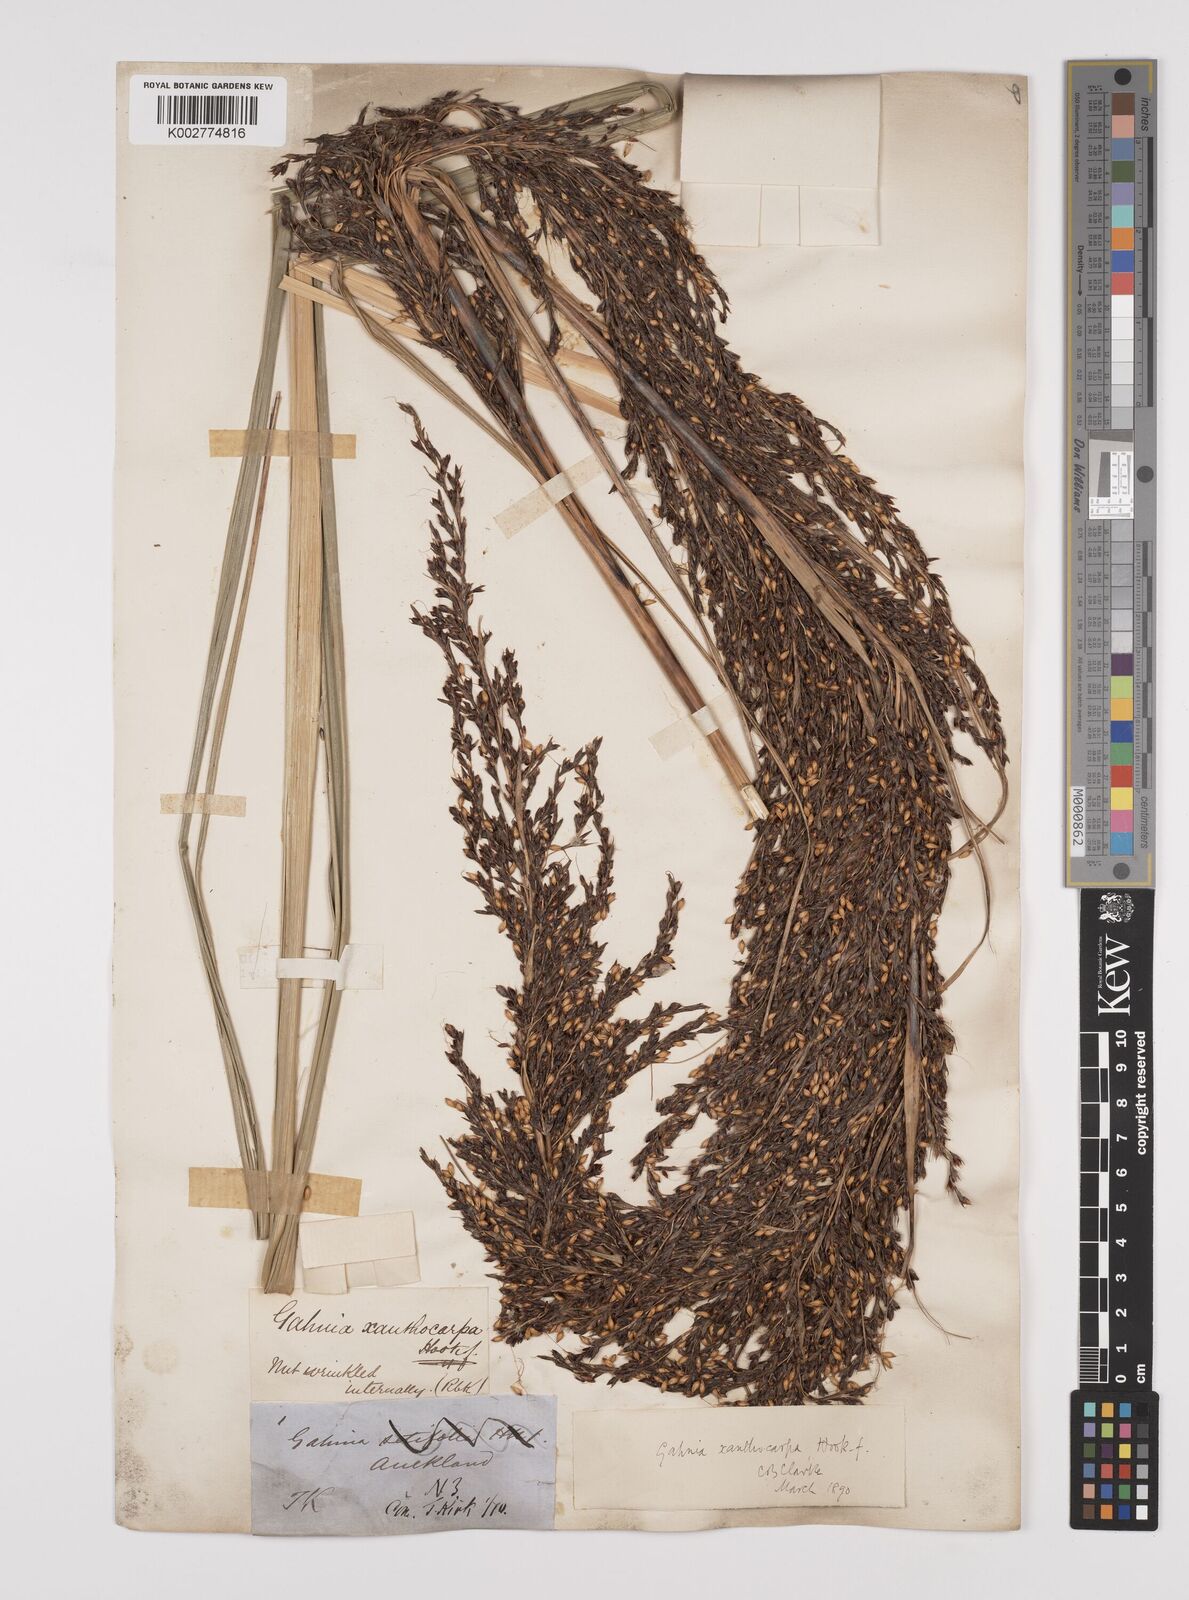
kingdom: Plantae
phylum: Tracheophyta
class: Liliopsida
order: Poales
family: Cyperaceae
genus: Gahnia
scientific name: Gahnia xanthocarpa
